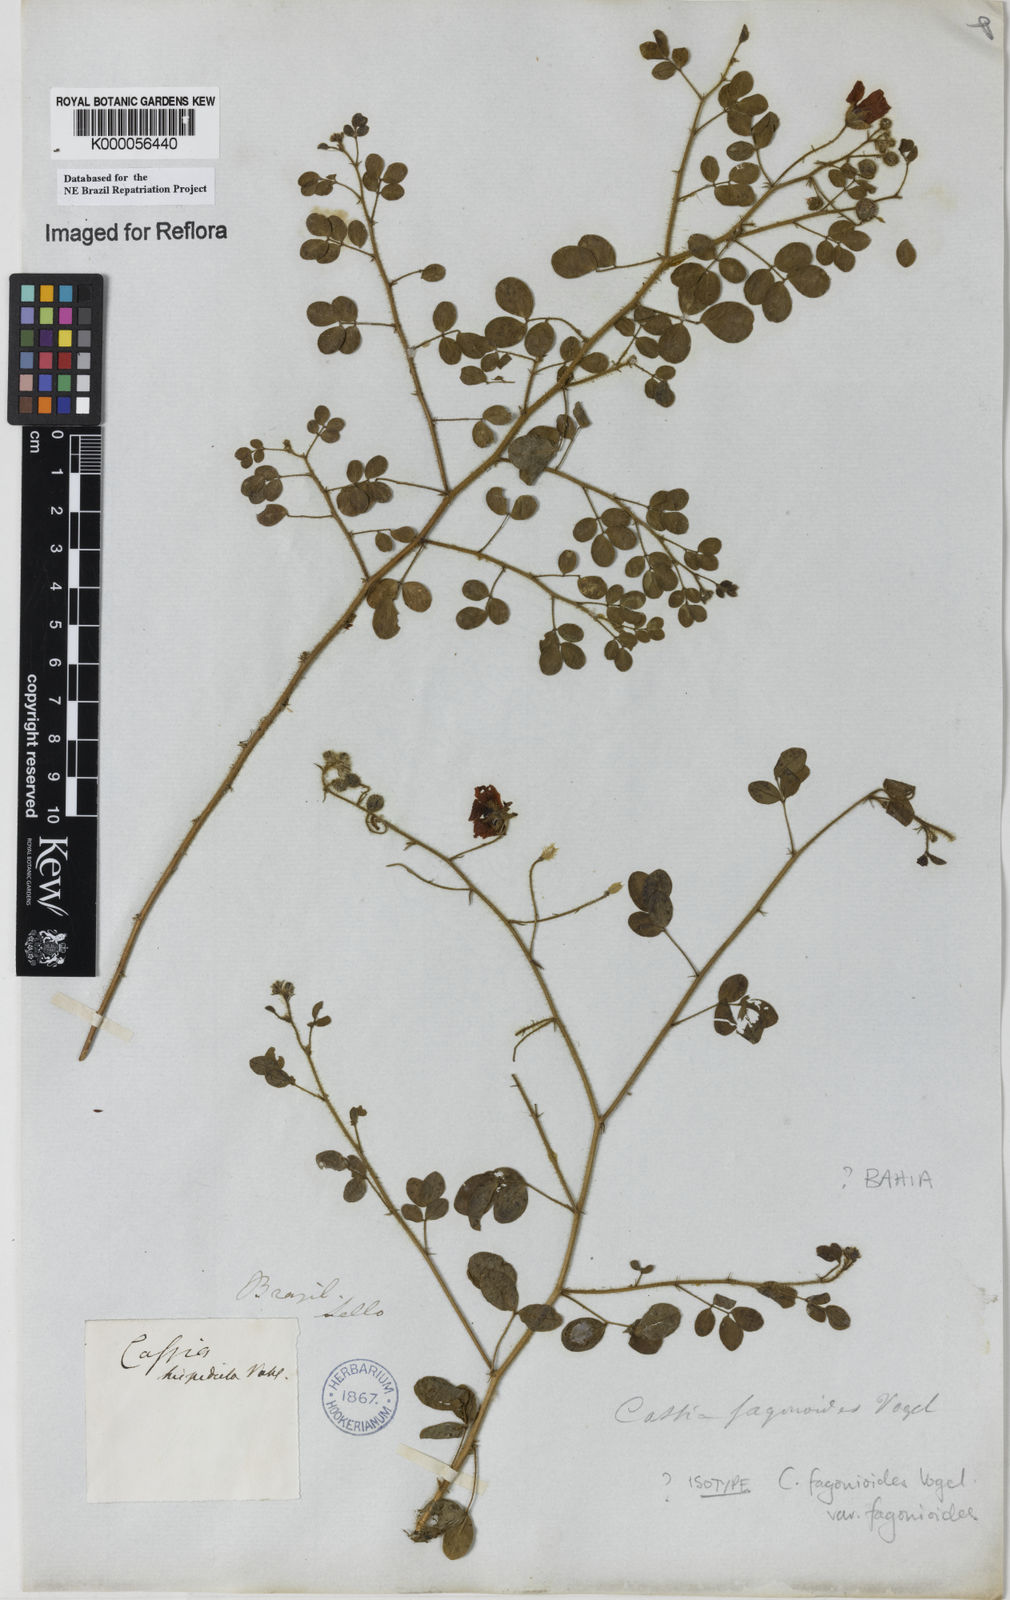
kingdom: Plantae
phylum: Tracheophyta
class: Magnoliopsida
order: Fabales
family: Fabaceae
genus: Chamaecrista
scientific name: Chamaecrista fagonioides
